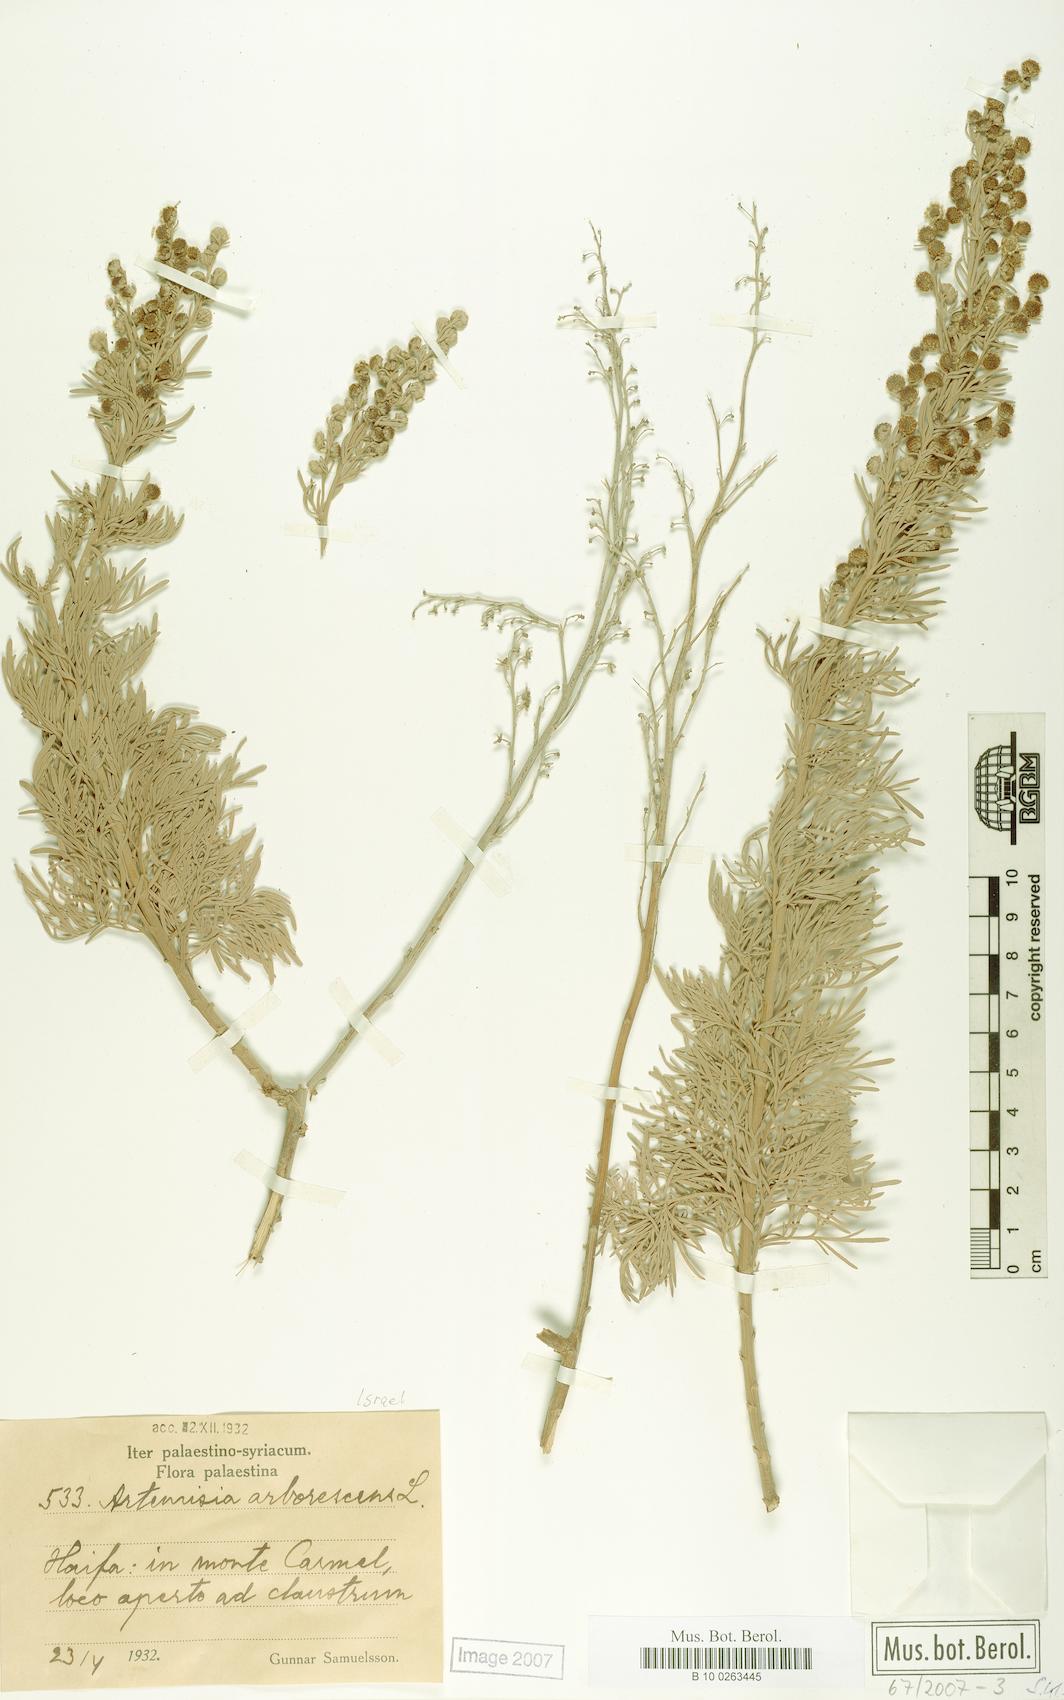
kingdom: Plantae
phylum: Tracheophyta
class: Magnoliopsida
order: Asterales
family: Asteraceae
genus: Artemisia
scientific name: Artemisia arborescens
